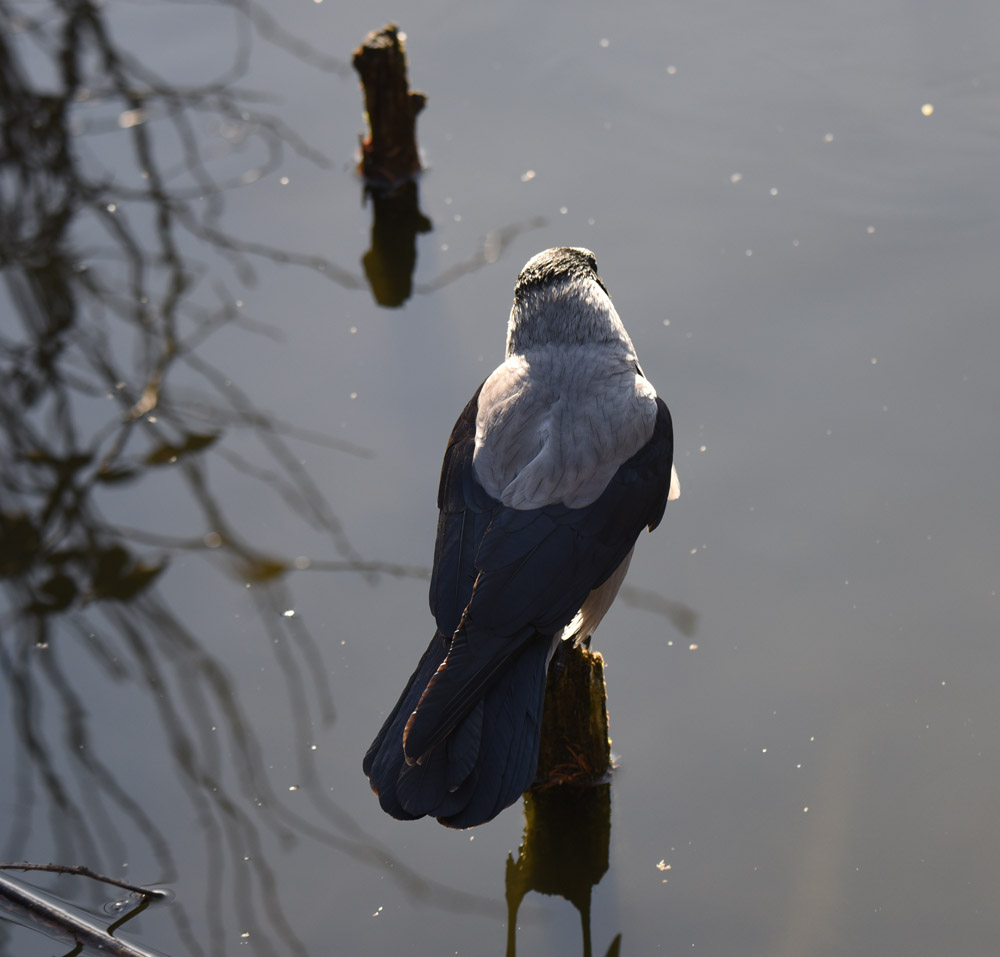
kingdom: Animalia
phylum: Chordata
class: Aves
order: Passeriformes
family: Corvidae
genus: Corvus
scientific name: Corvus cornix
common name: Hooded crow
